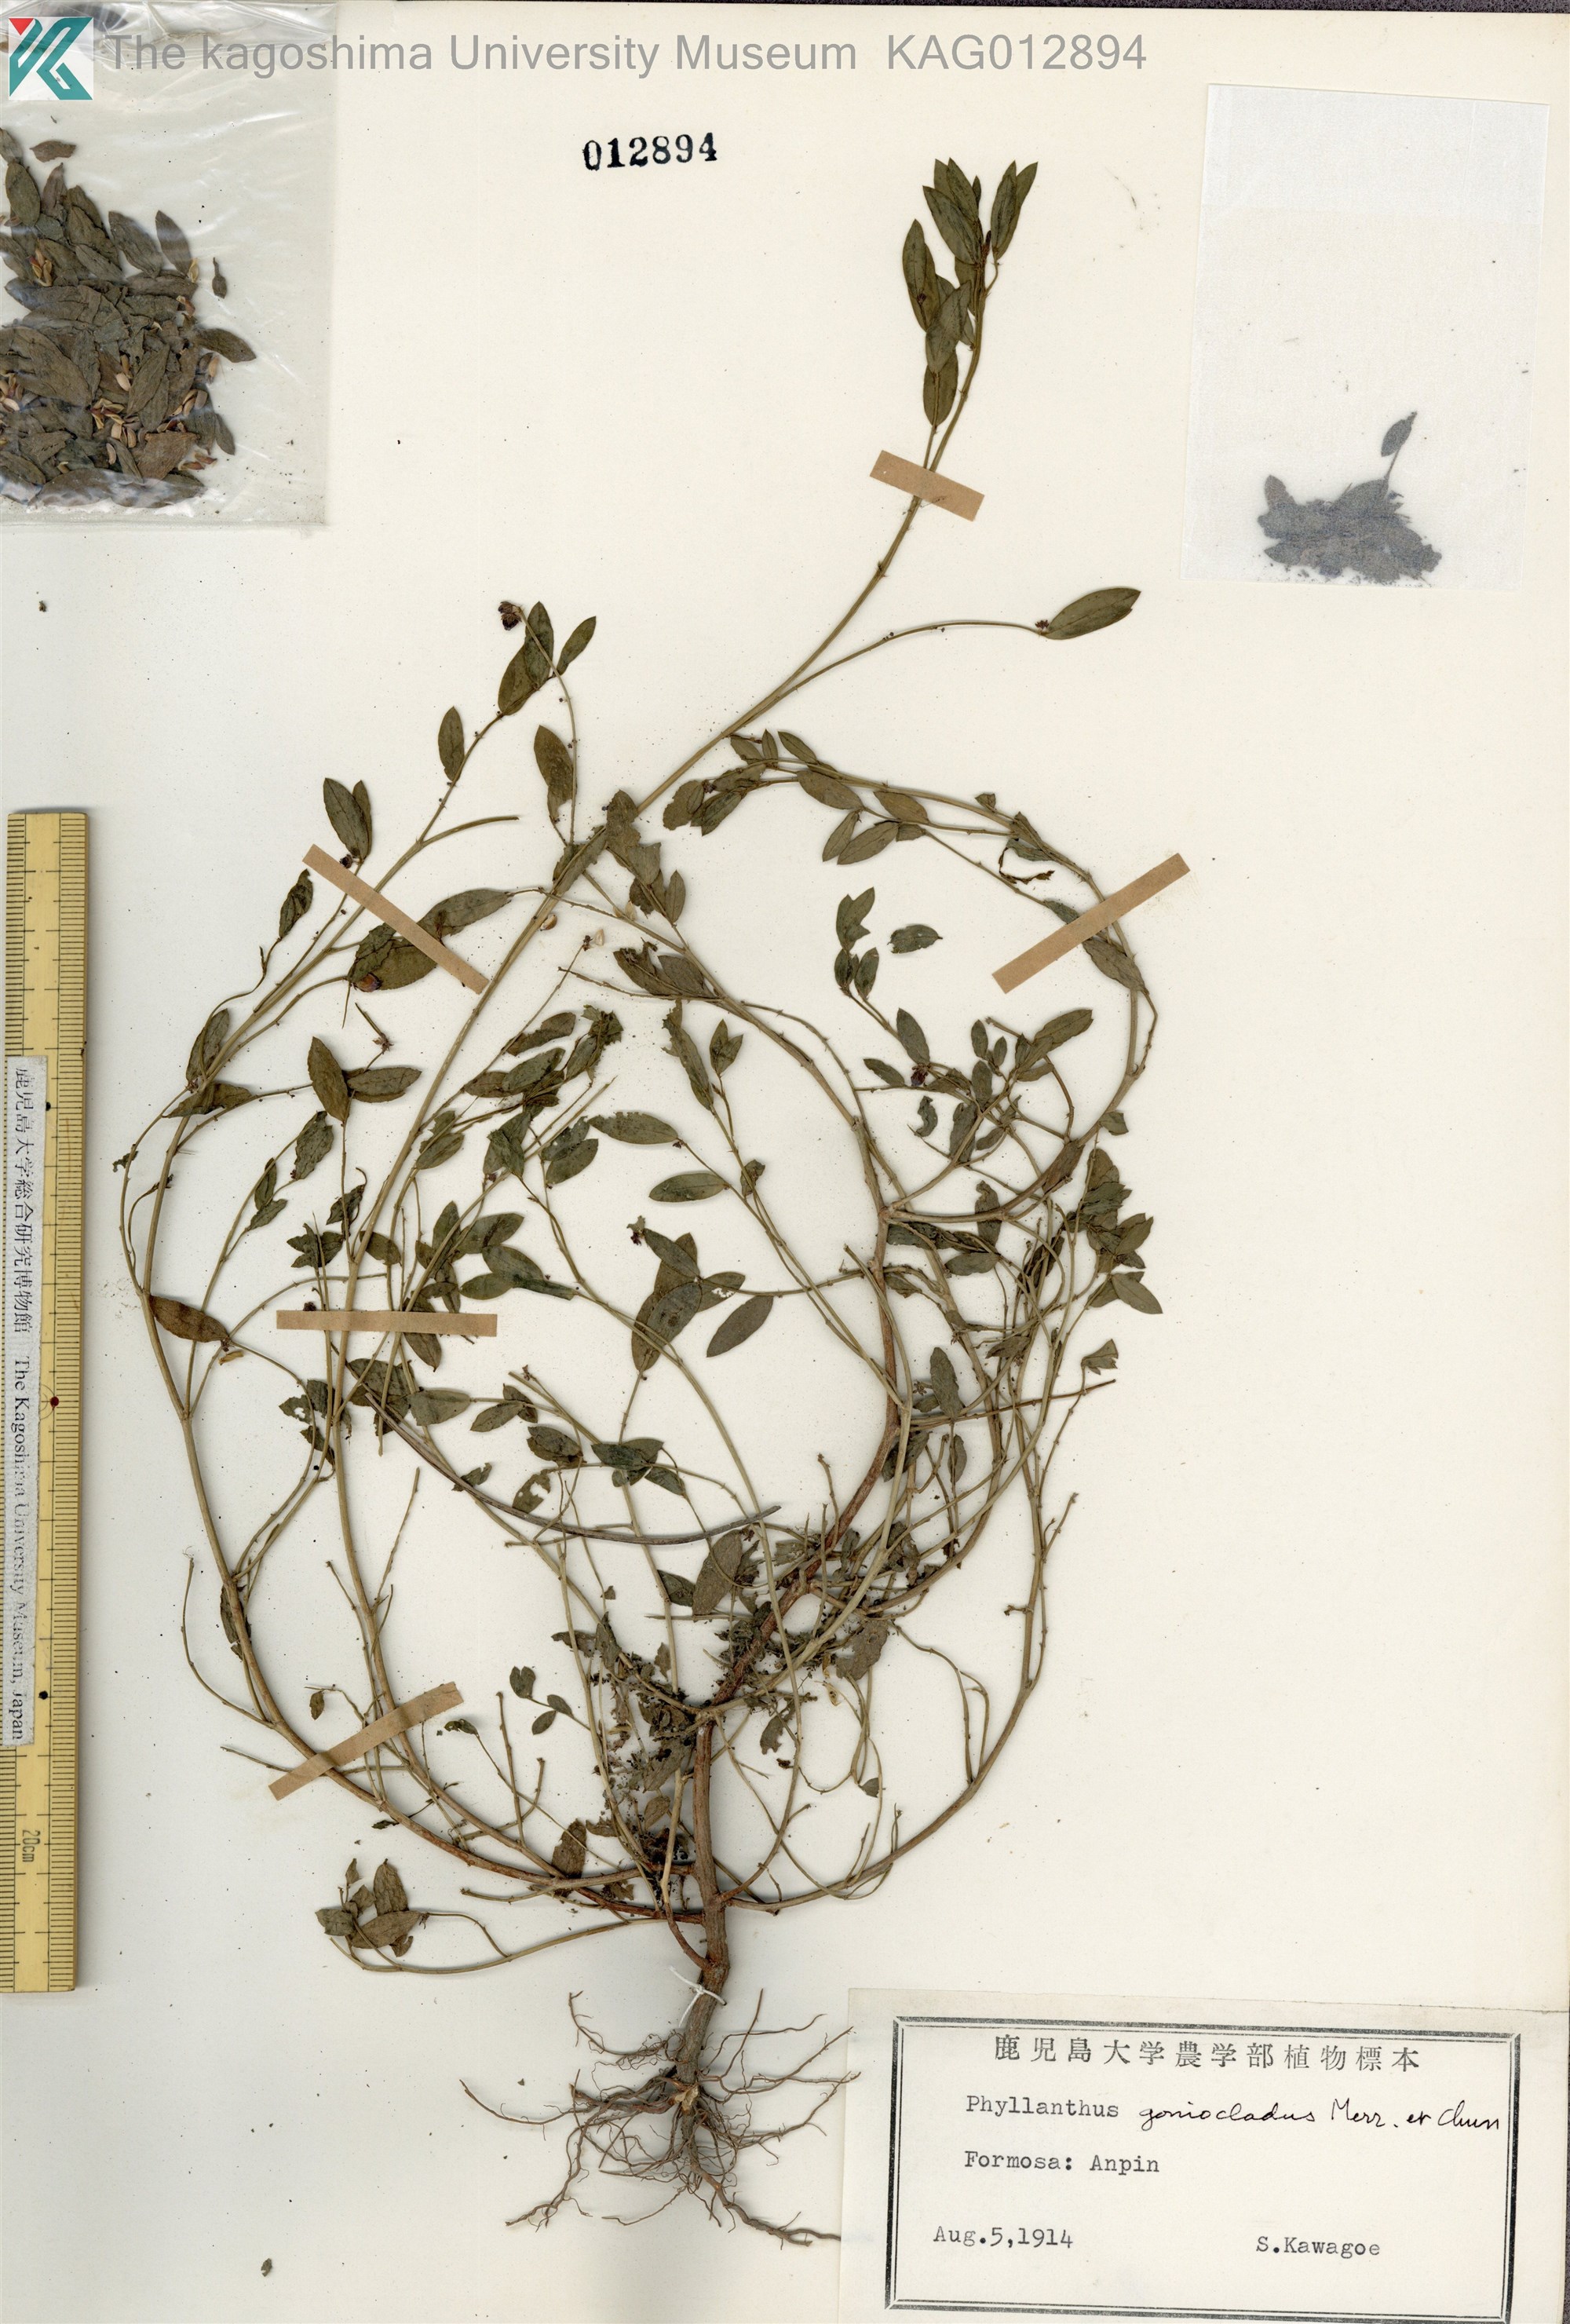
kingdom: Plantae
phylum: Tracheophyta
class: Magnoliopsida
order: Malpighiales
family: Phyllanthaceae
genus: Synostemon
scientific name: Synostemon bacciformis
